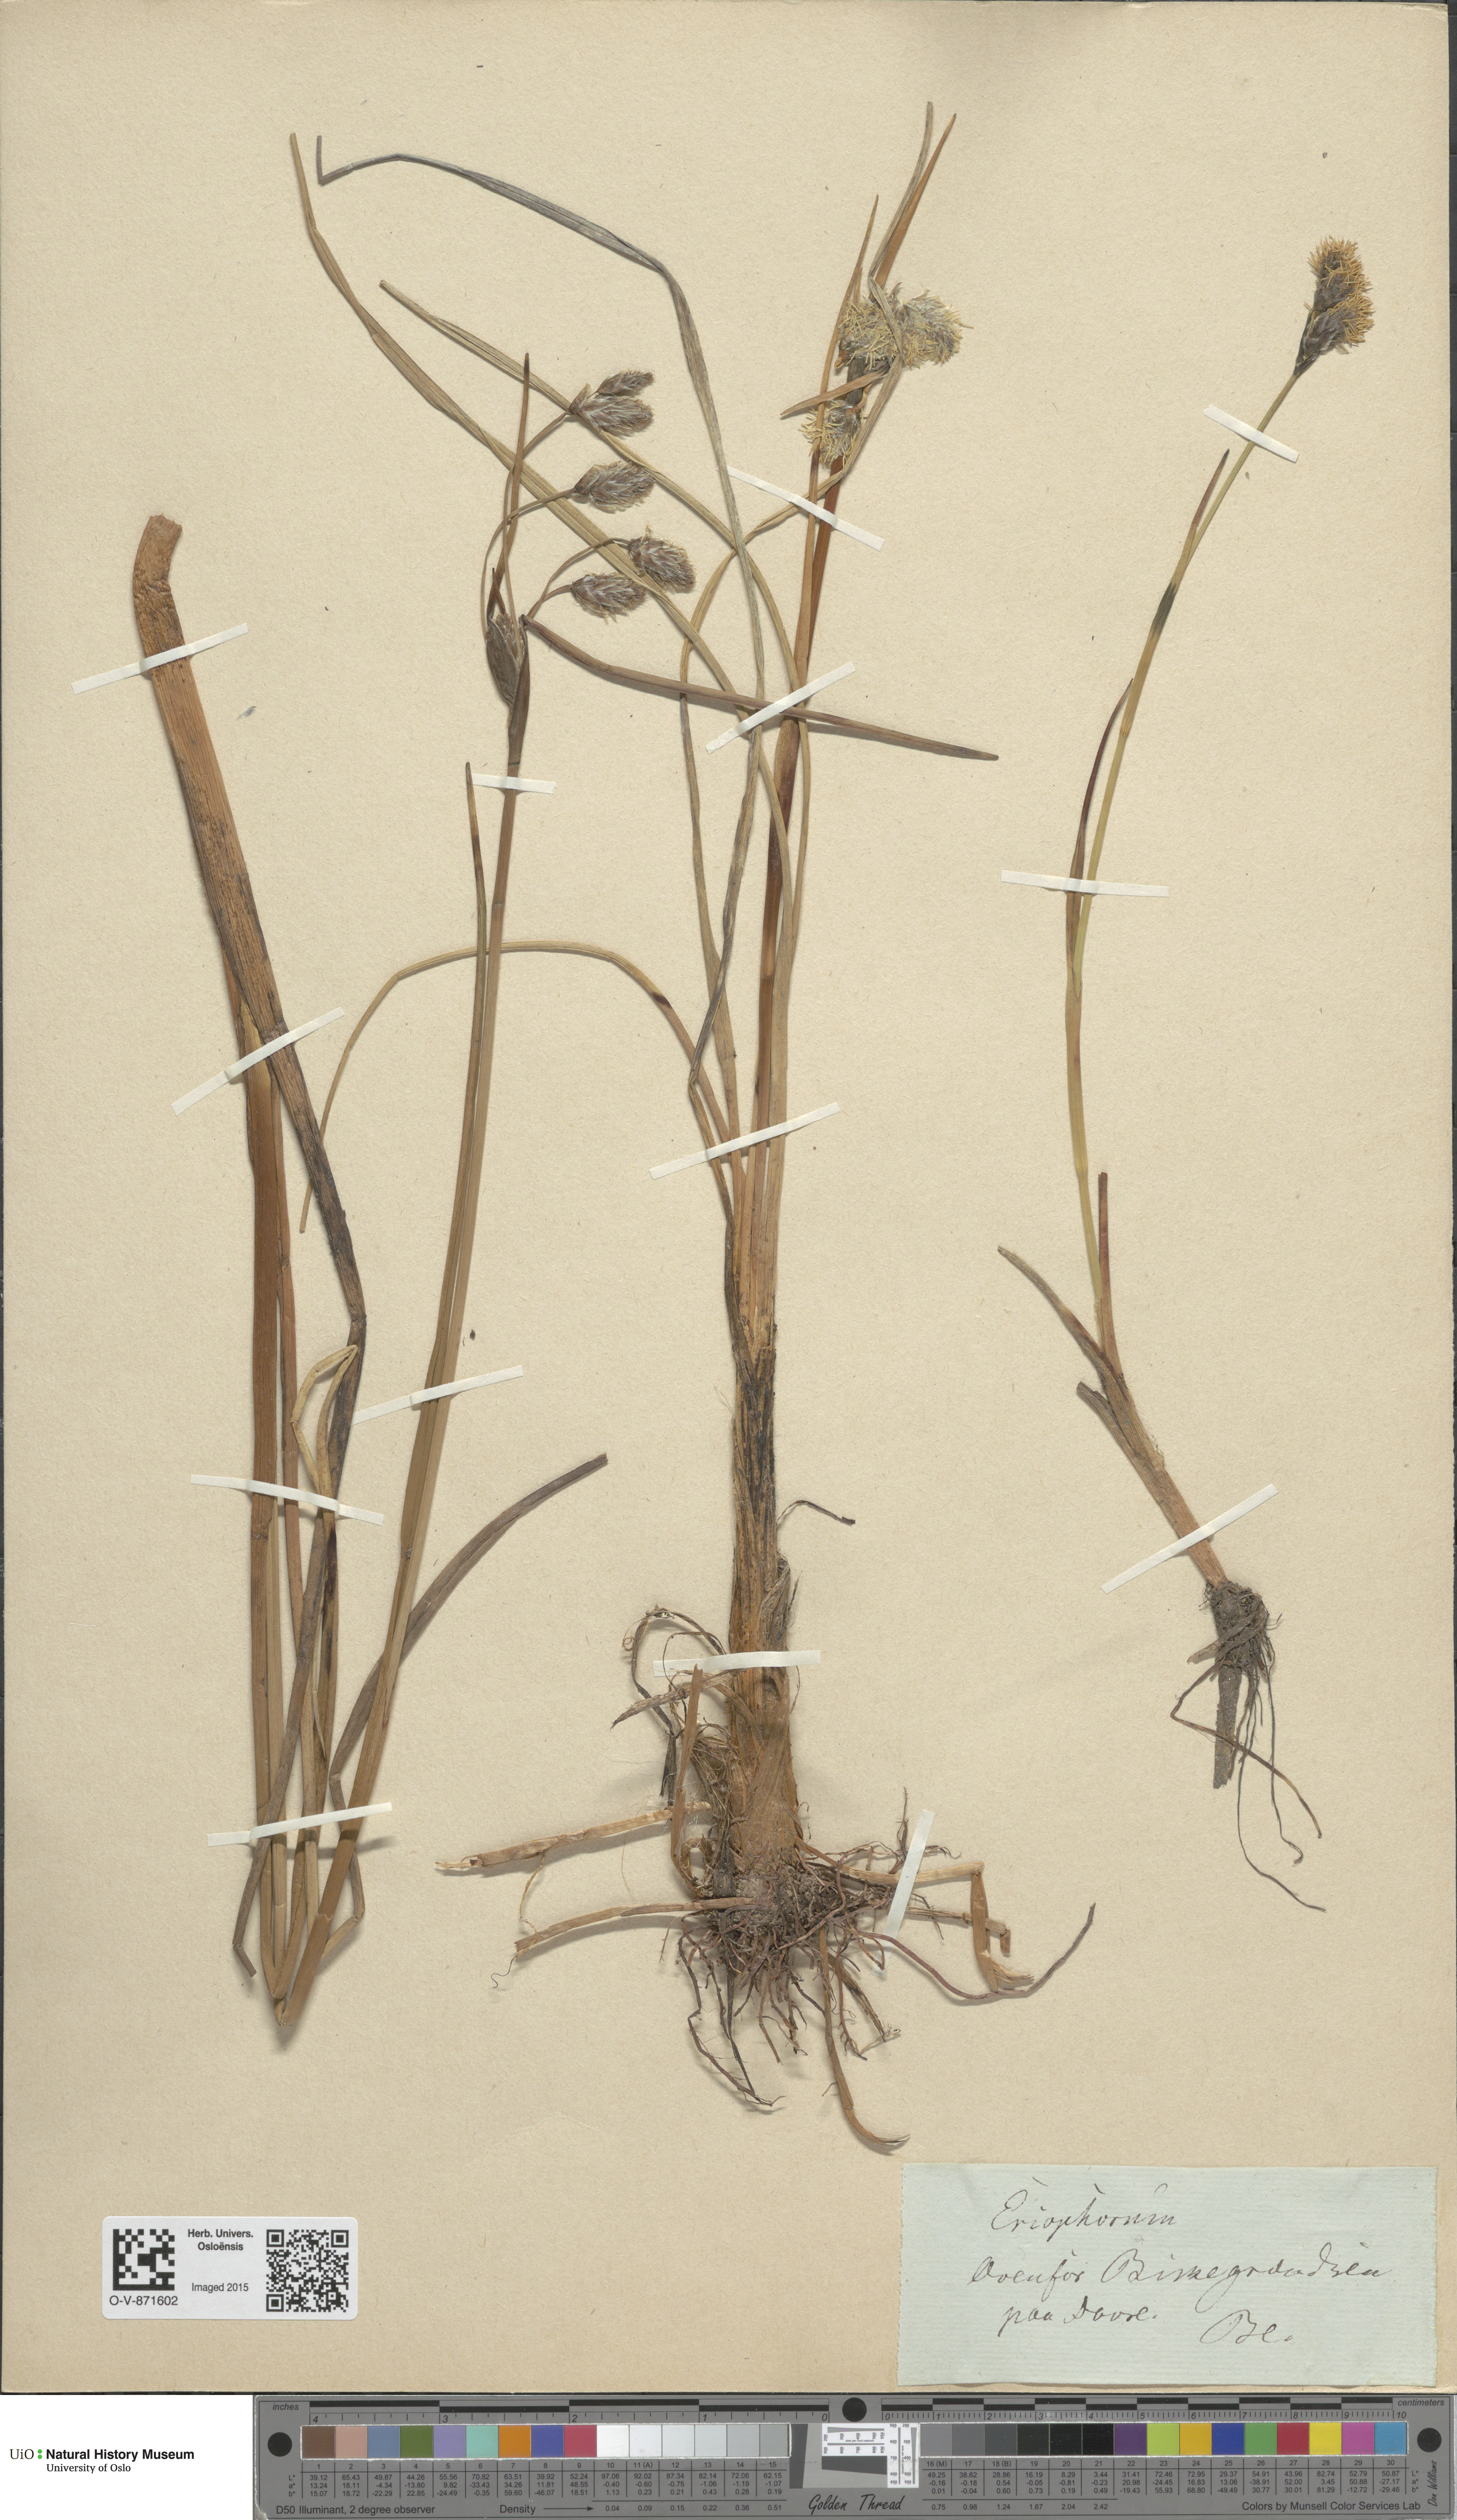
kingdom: Plantae
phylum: Tracheophyta
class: Liliopsida
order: Poales
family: Cyperaceae
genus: Eriophorum
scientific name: Eriophorum angustifolium
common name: Common cottongrass
